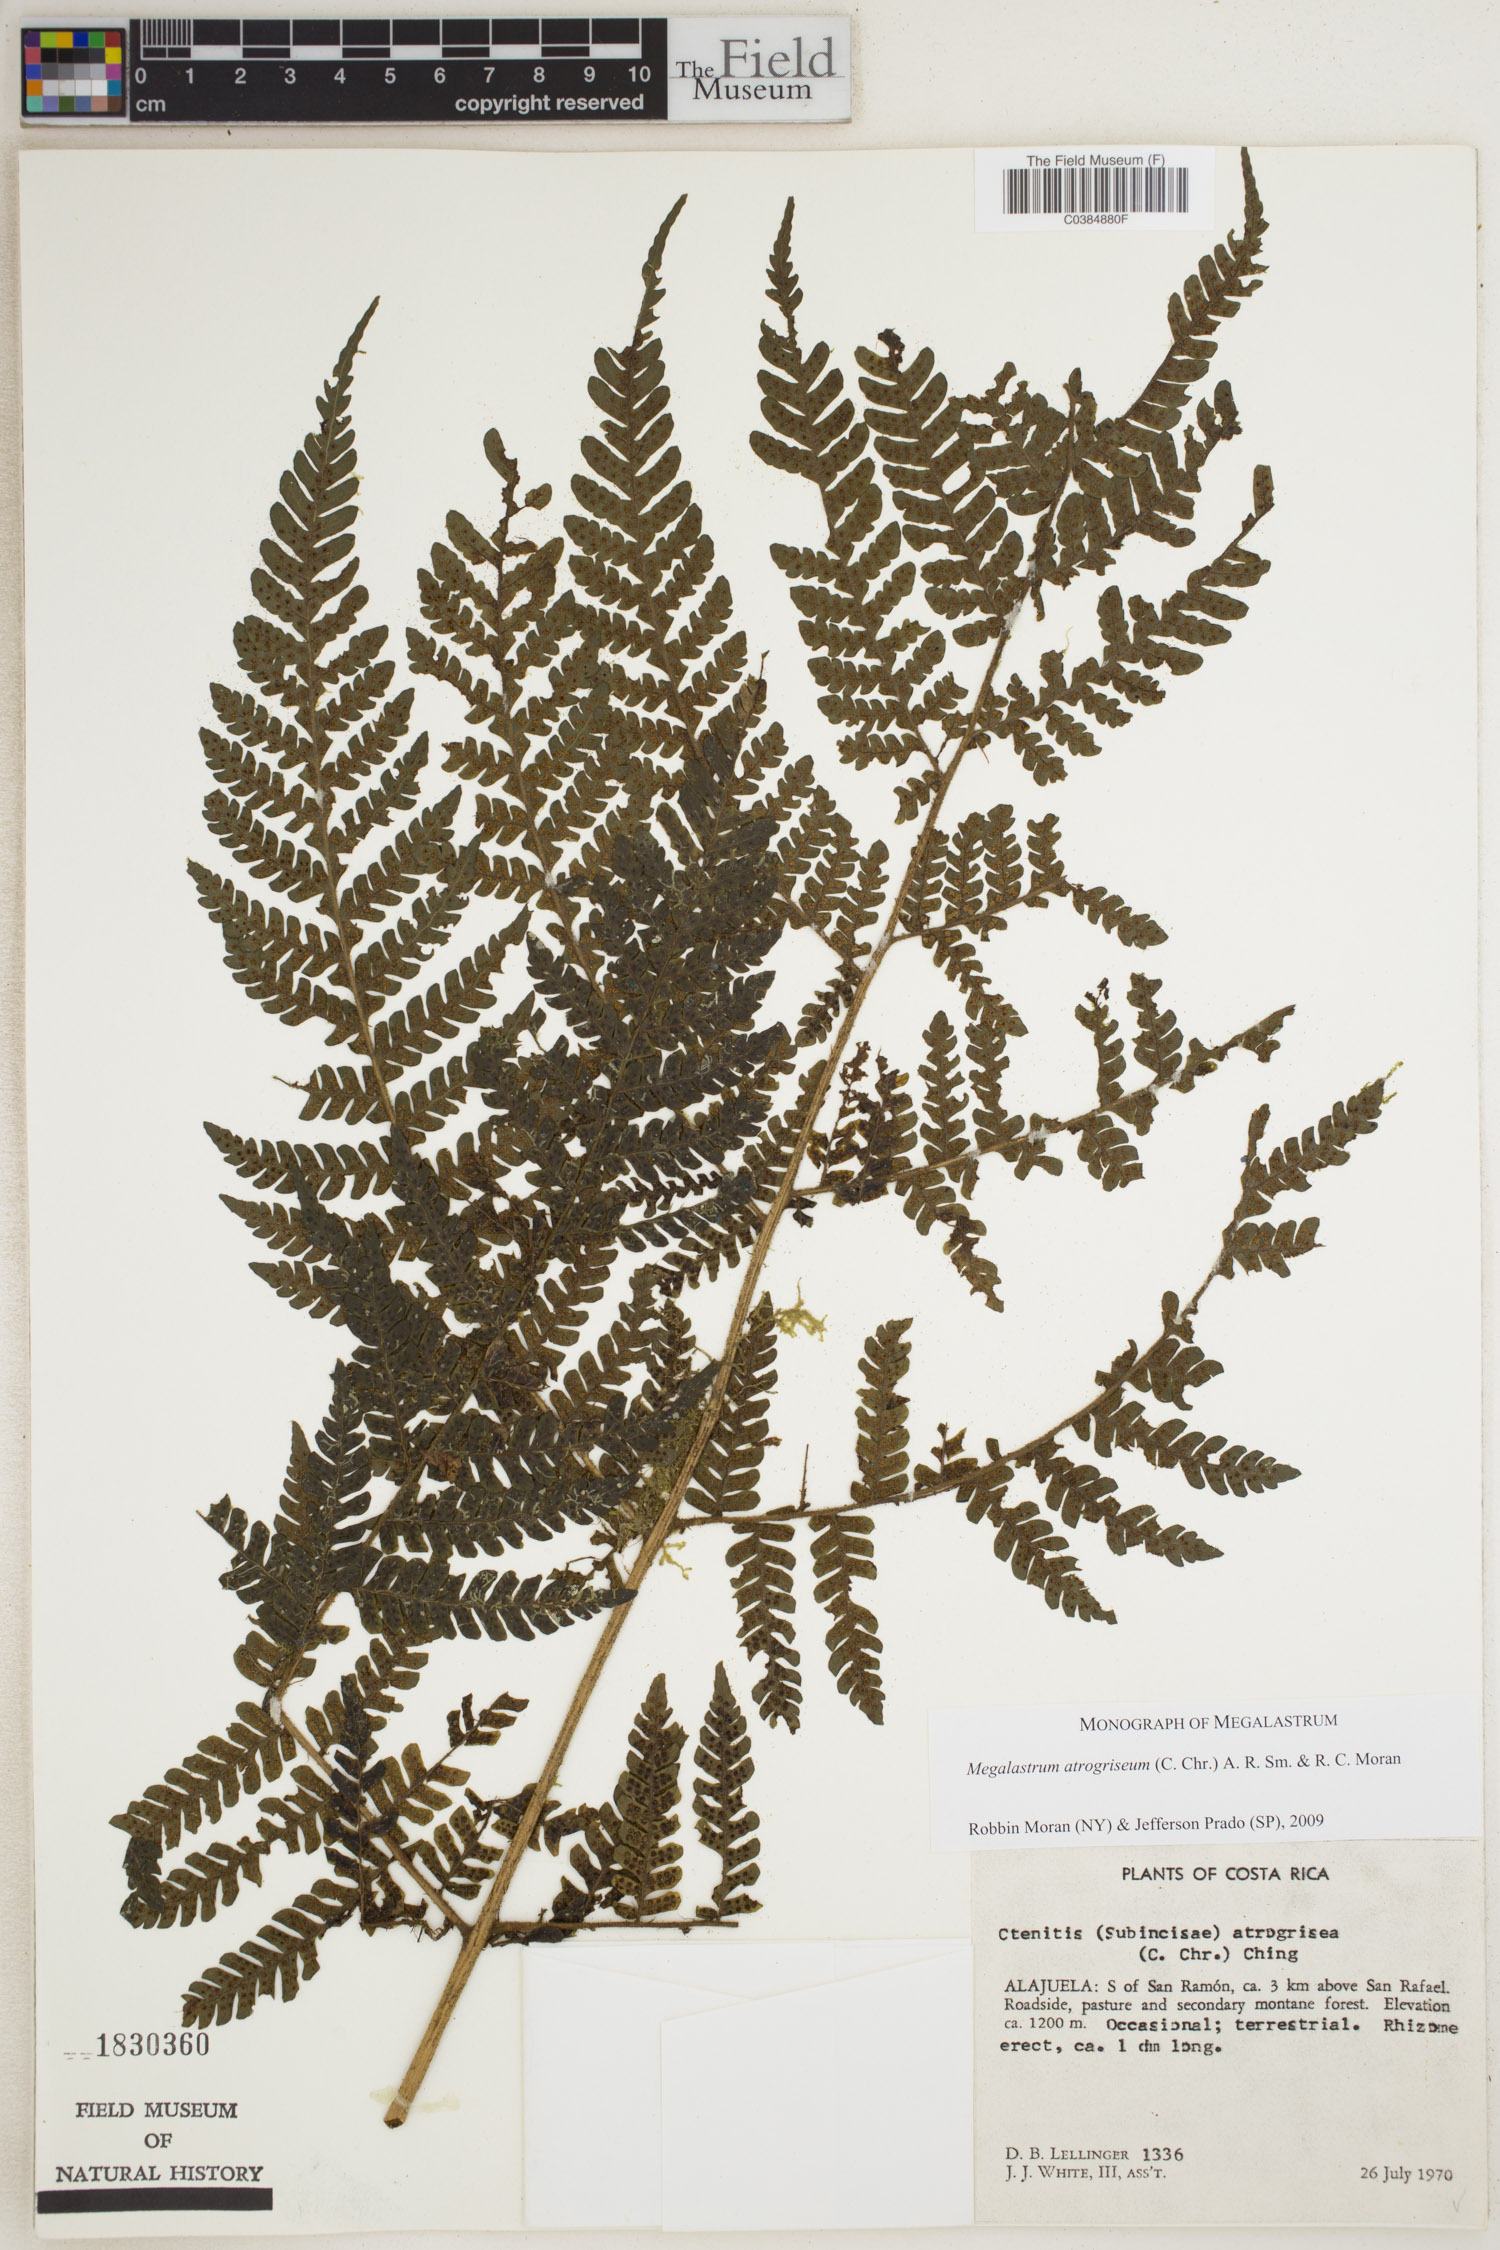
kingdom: Plantae
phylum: Tracheophyta
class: Polypodiopsida
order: Polypodiales
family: Dryopteridaceae
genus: Megalastrum
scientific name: Megalastrum atrogriseum
